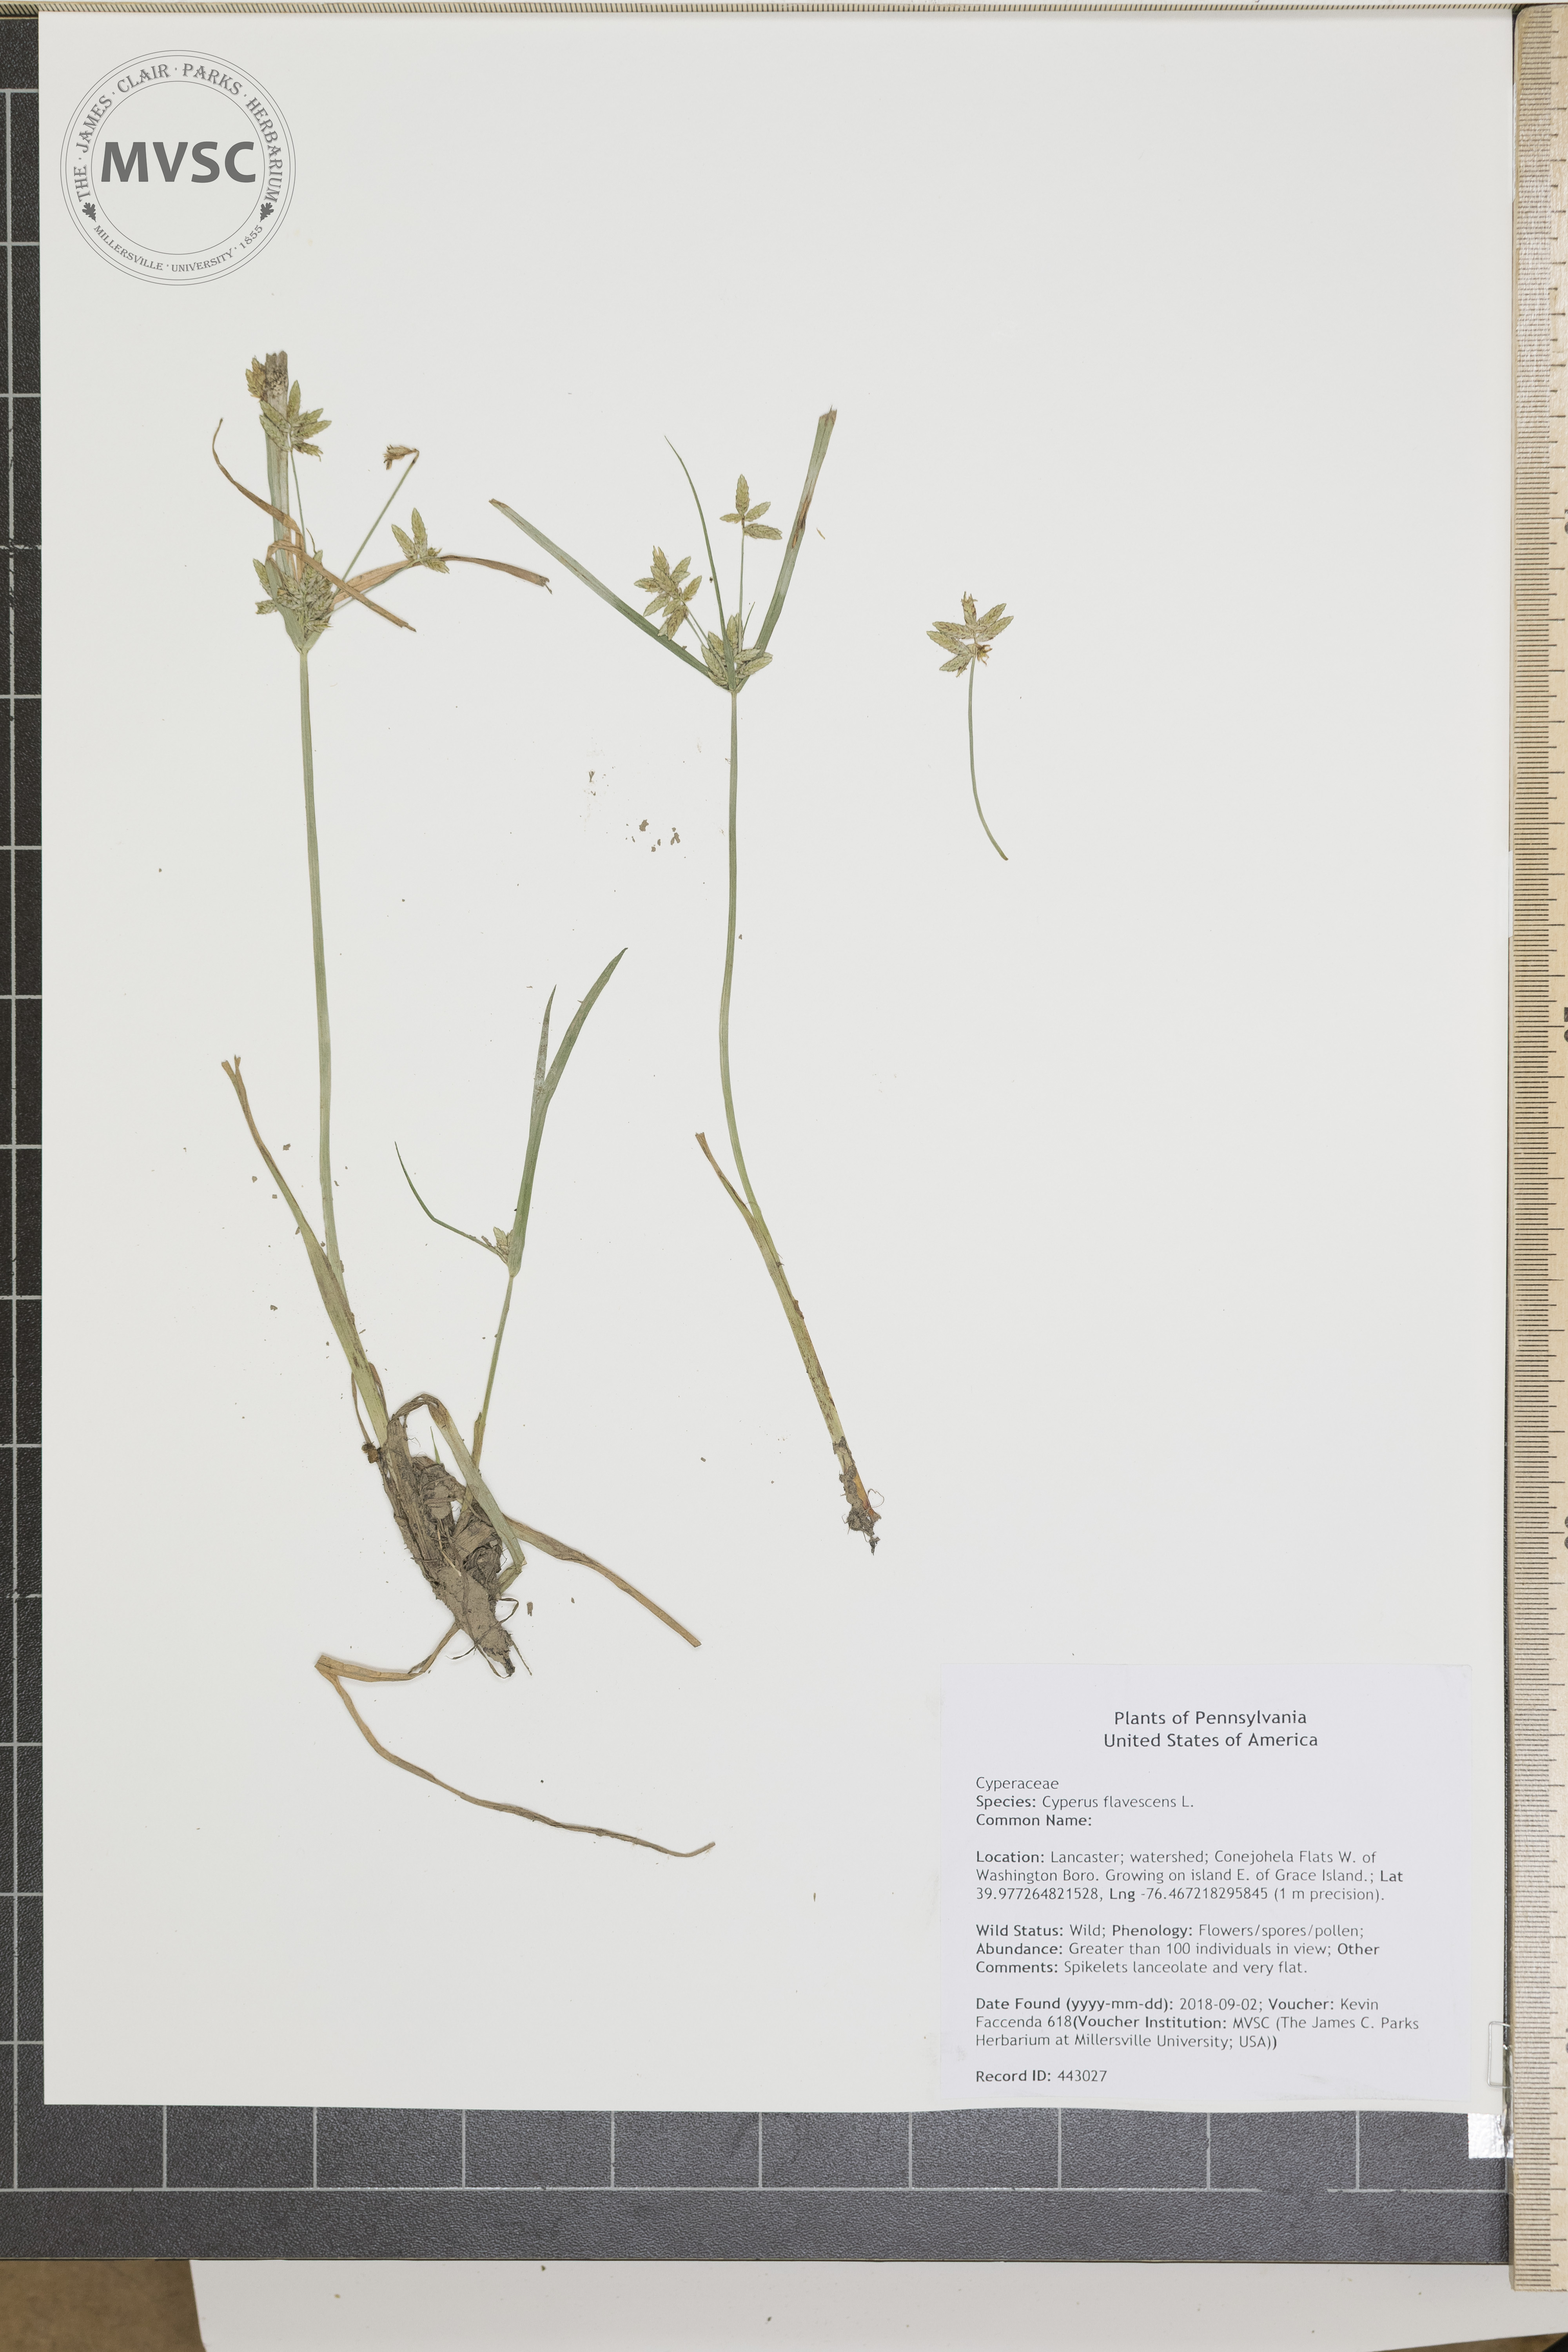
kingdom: Plantae
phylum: Tracheophyta
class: Liliopsida
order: Poales
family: Cyperaceae
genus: Cyperus
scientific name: Cyperus flavescens
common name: Yellow galingale
